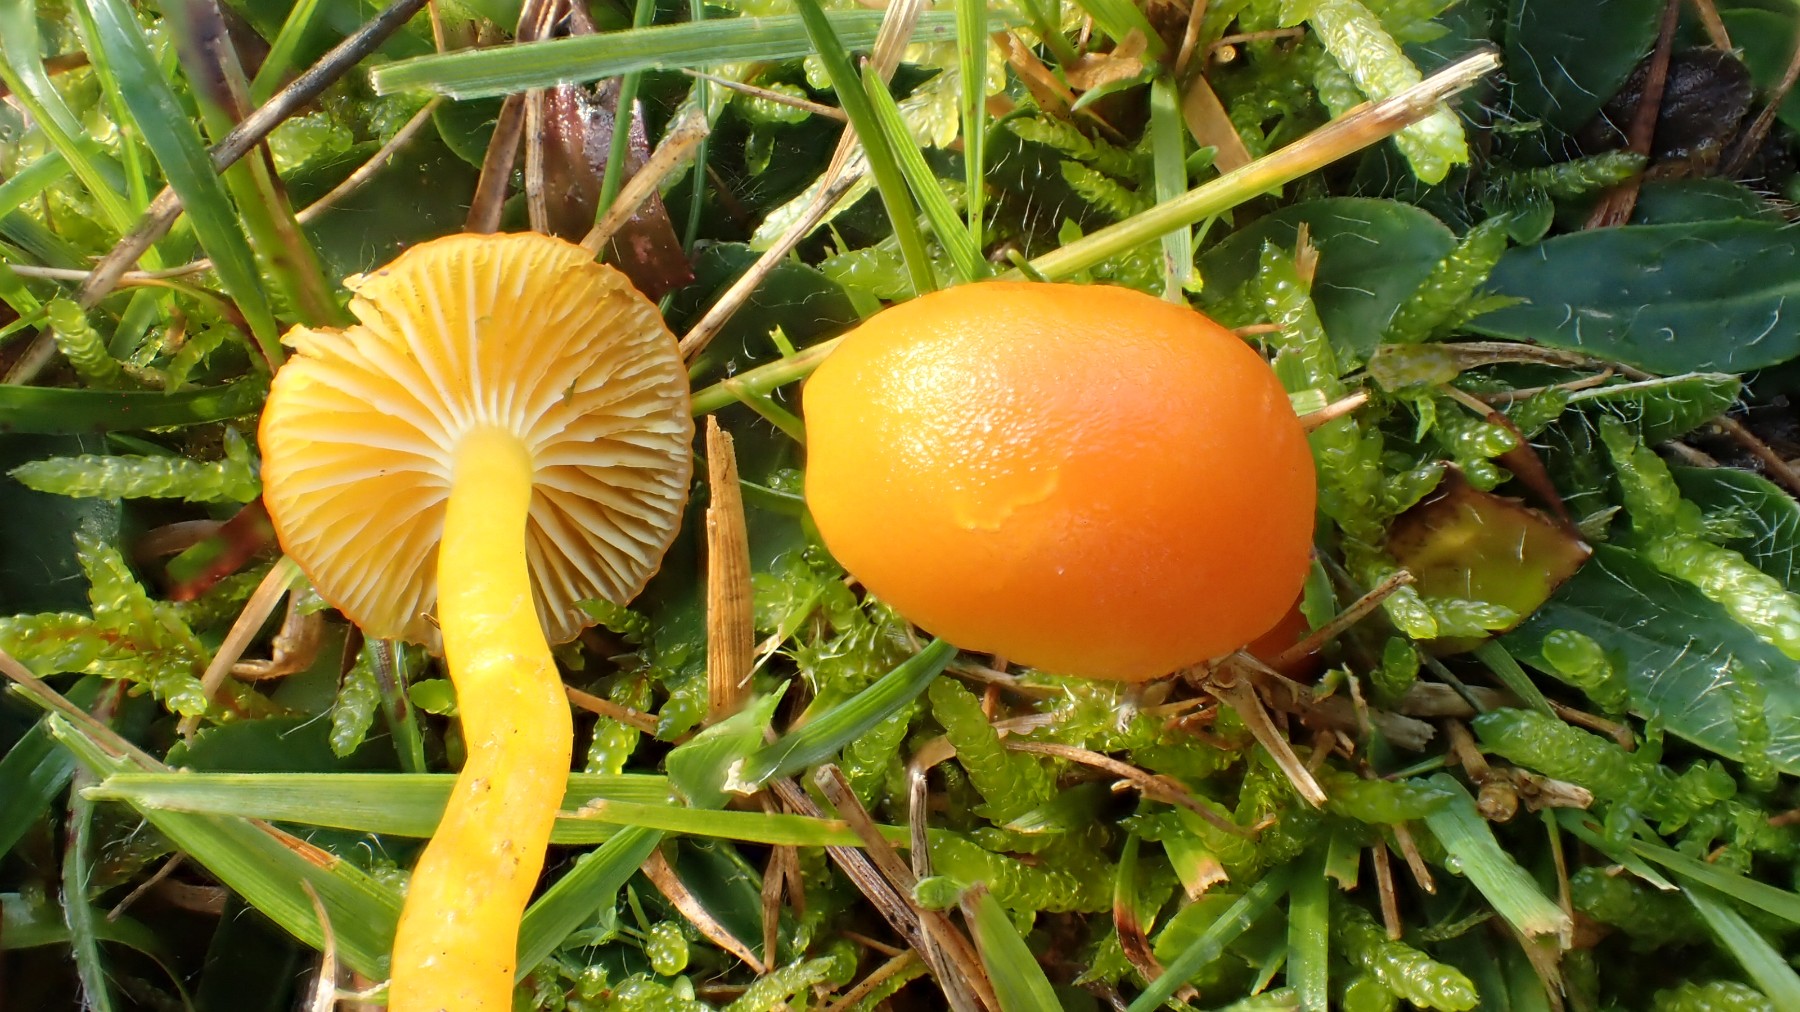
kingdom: Fungi
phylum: Basidiomycota
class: Agaricomycetes
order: Agaricales
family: Hygrophoraceae
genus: Hygrocybe
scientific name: Hygrocybe ceracea
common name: voksgul vokshat
